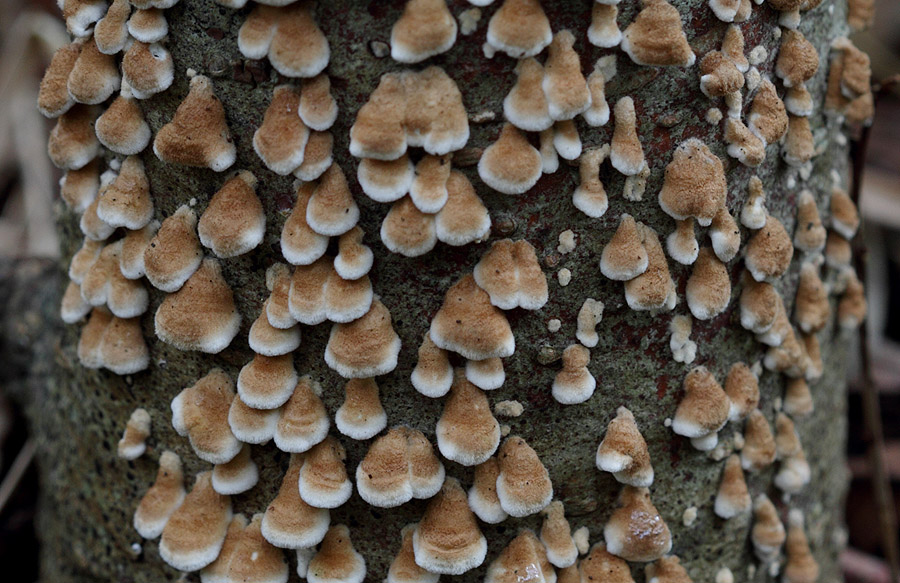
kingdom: Fungi
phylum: Basidiomycota
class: Agaricomycetes
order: Amylocorticiales
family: Amylocorticiaceae
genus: Plicaturopsis
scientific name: Plicaturopsis crispa
